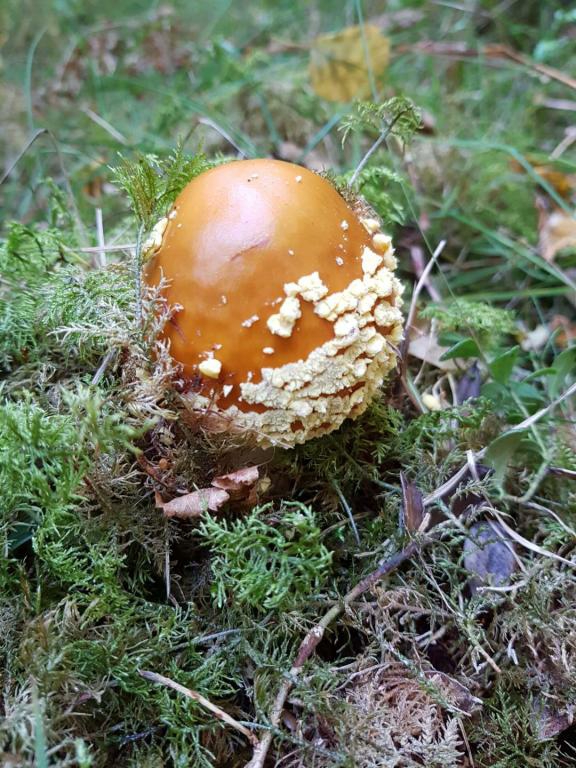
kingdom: Fungi
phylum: Basidiomycota
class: Agaricomycetes
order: Agaricales
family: Amanitaceae
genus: Amanita
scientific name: Amanita regalis
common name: brun fluesvamp
